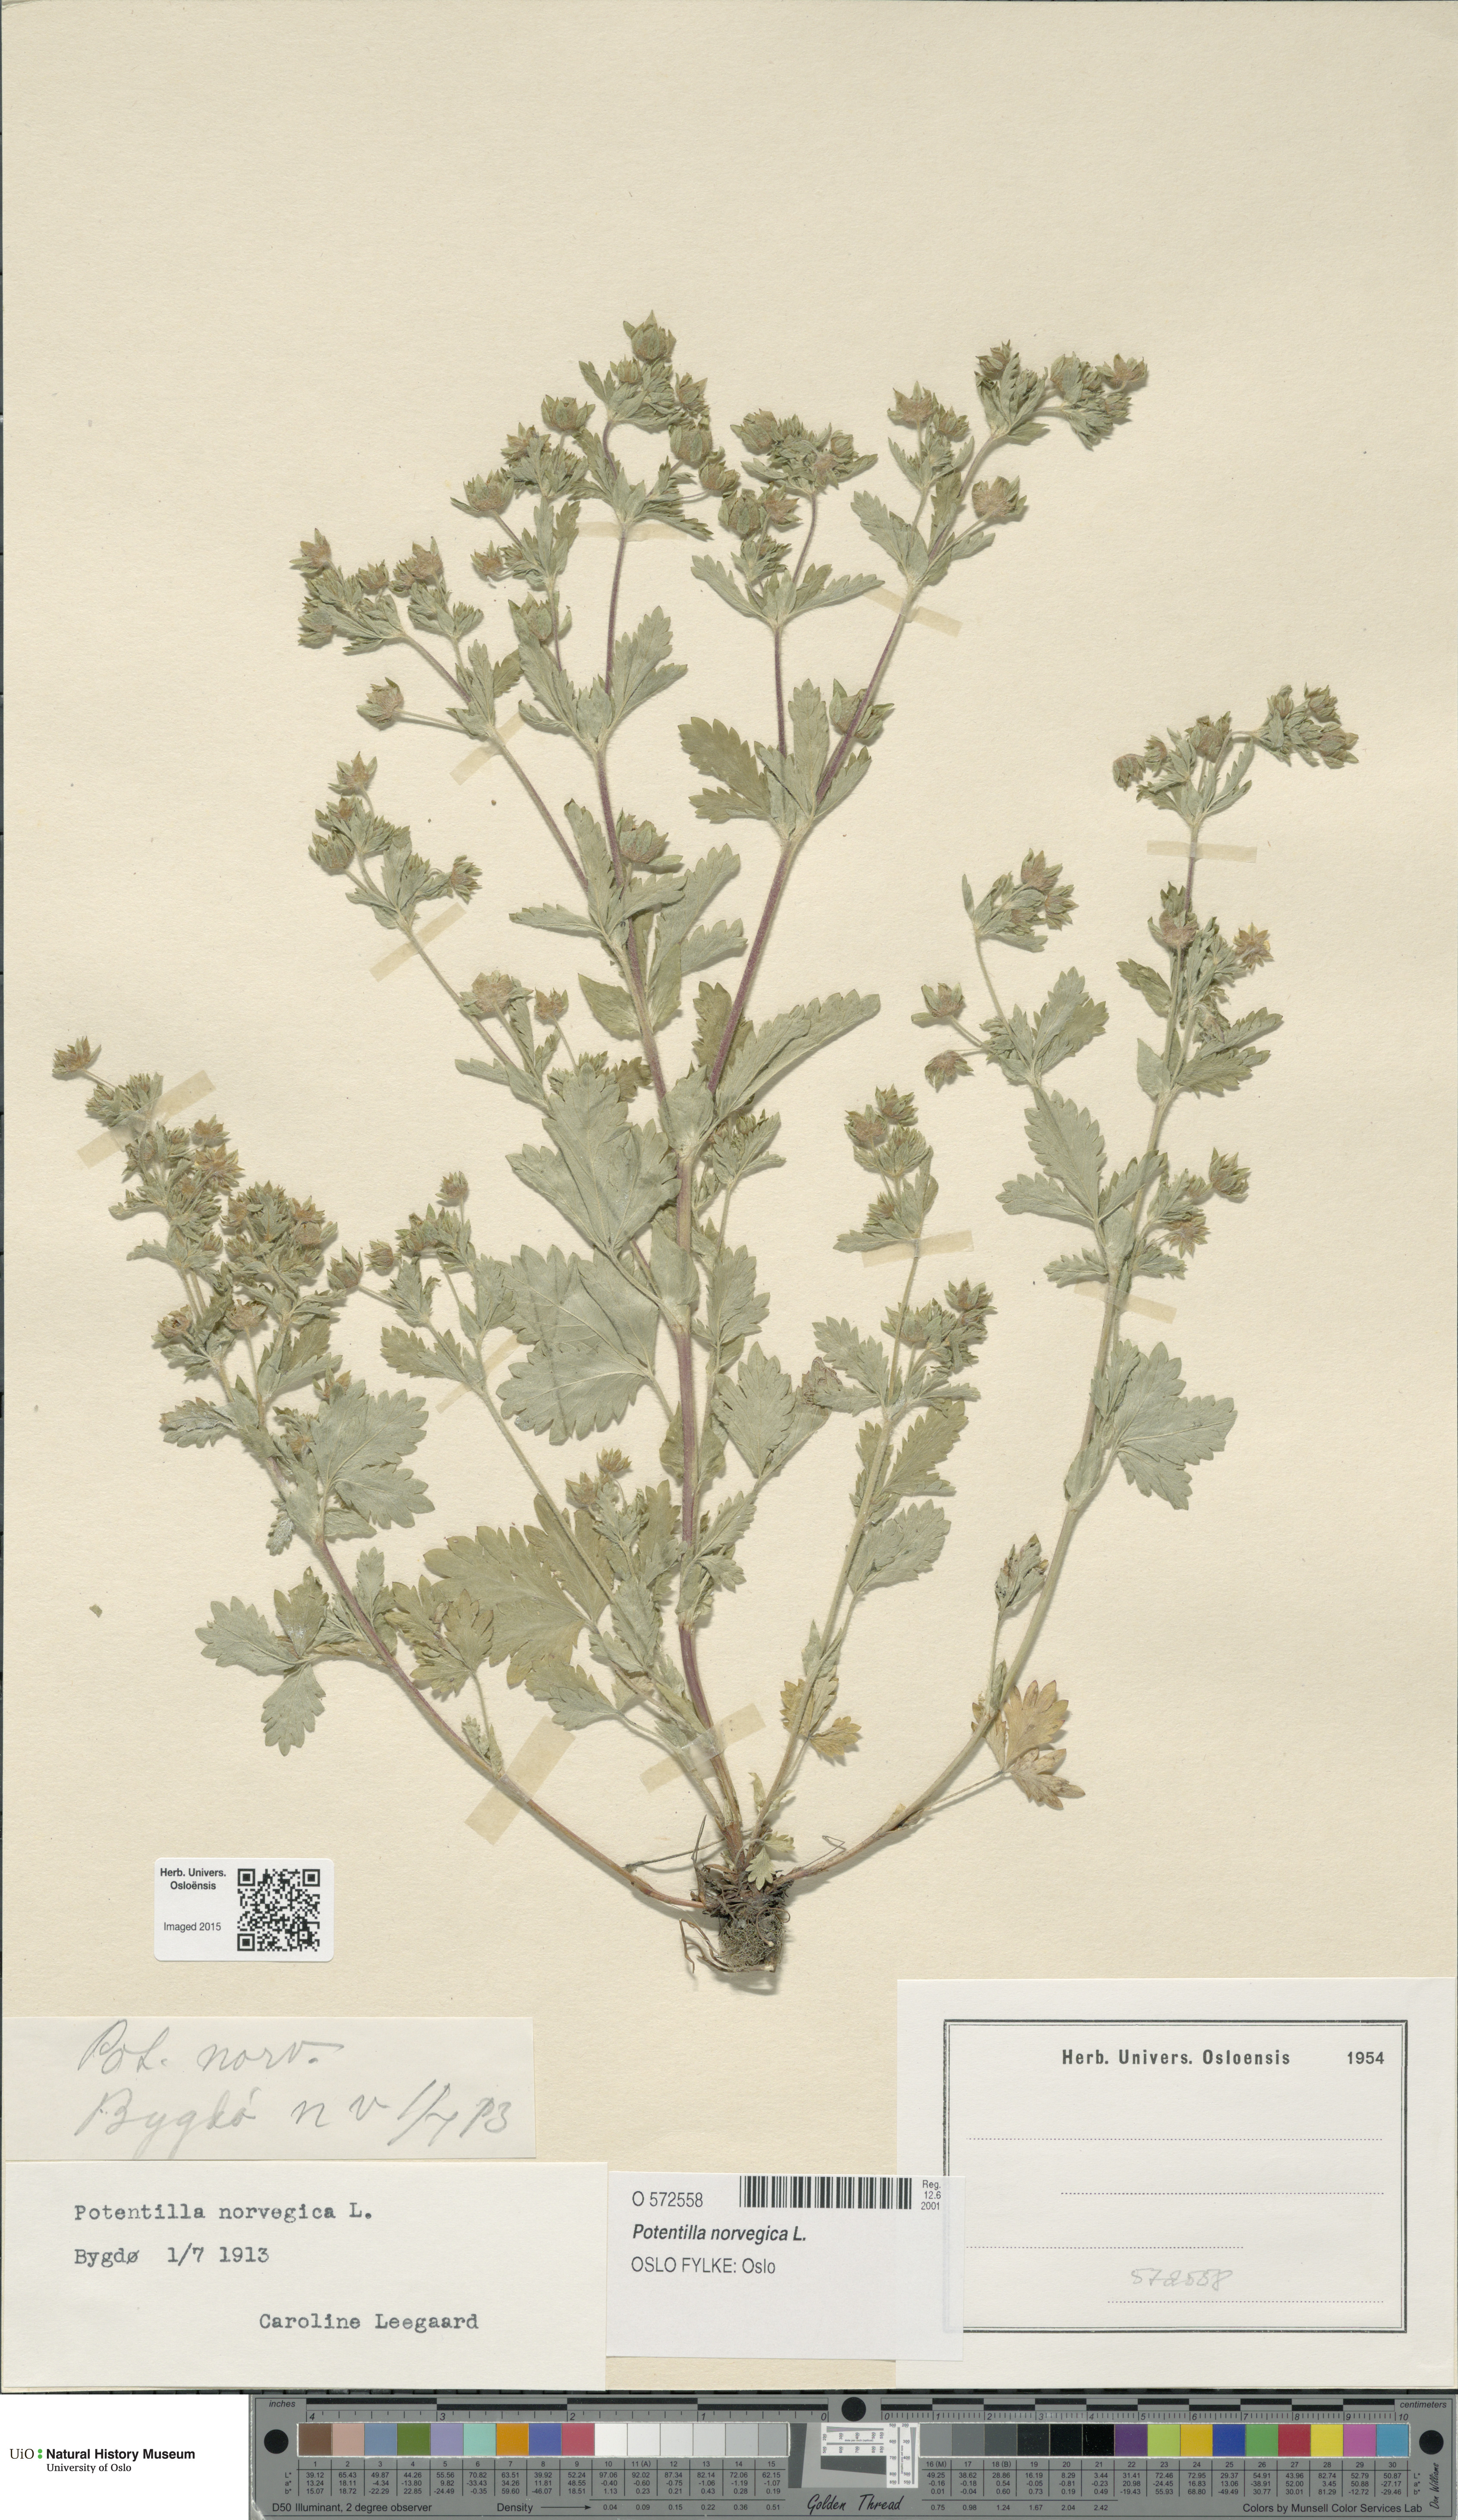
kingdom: Plantae
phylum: Tracheophyta
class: Magnoliopsida
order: Rosales
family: Rosaceae
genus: Potentilla
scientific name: Potentilla norvegica
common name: Ternate-leaved cinquefoil
